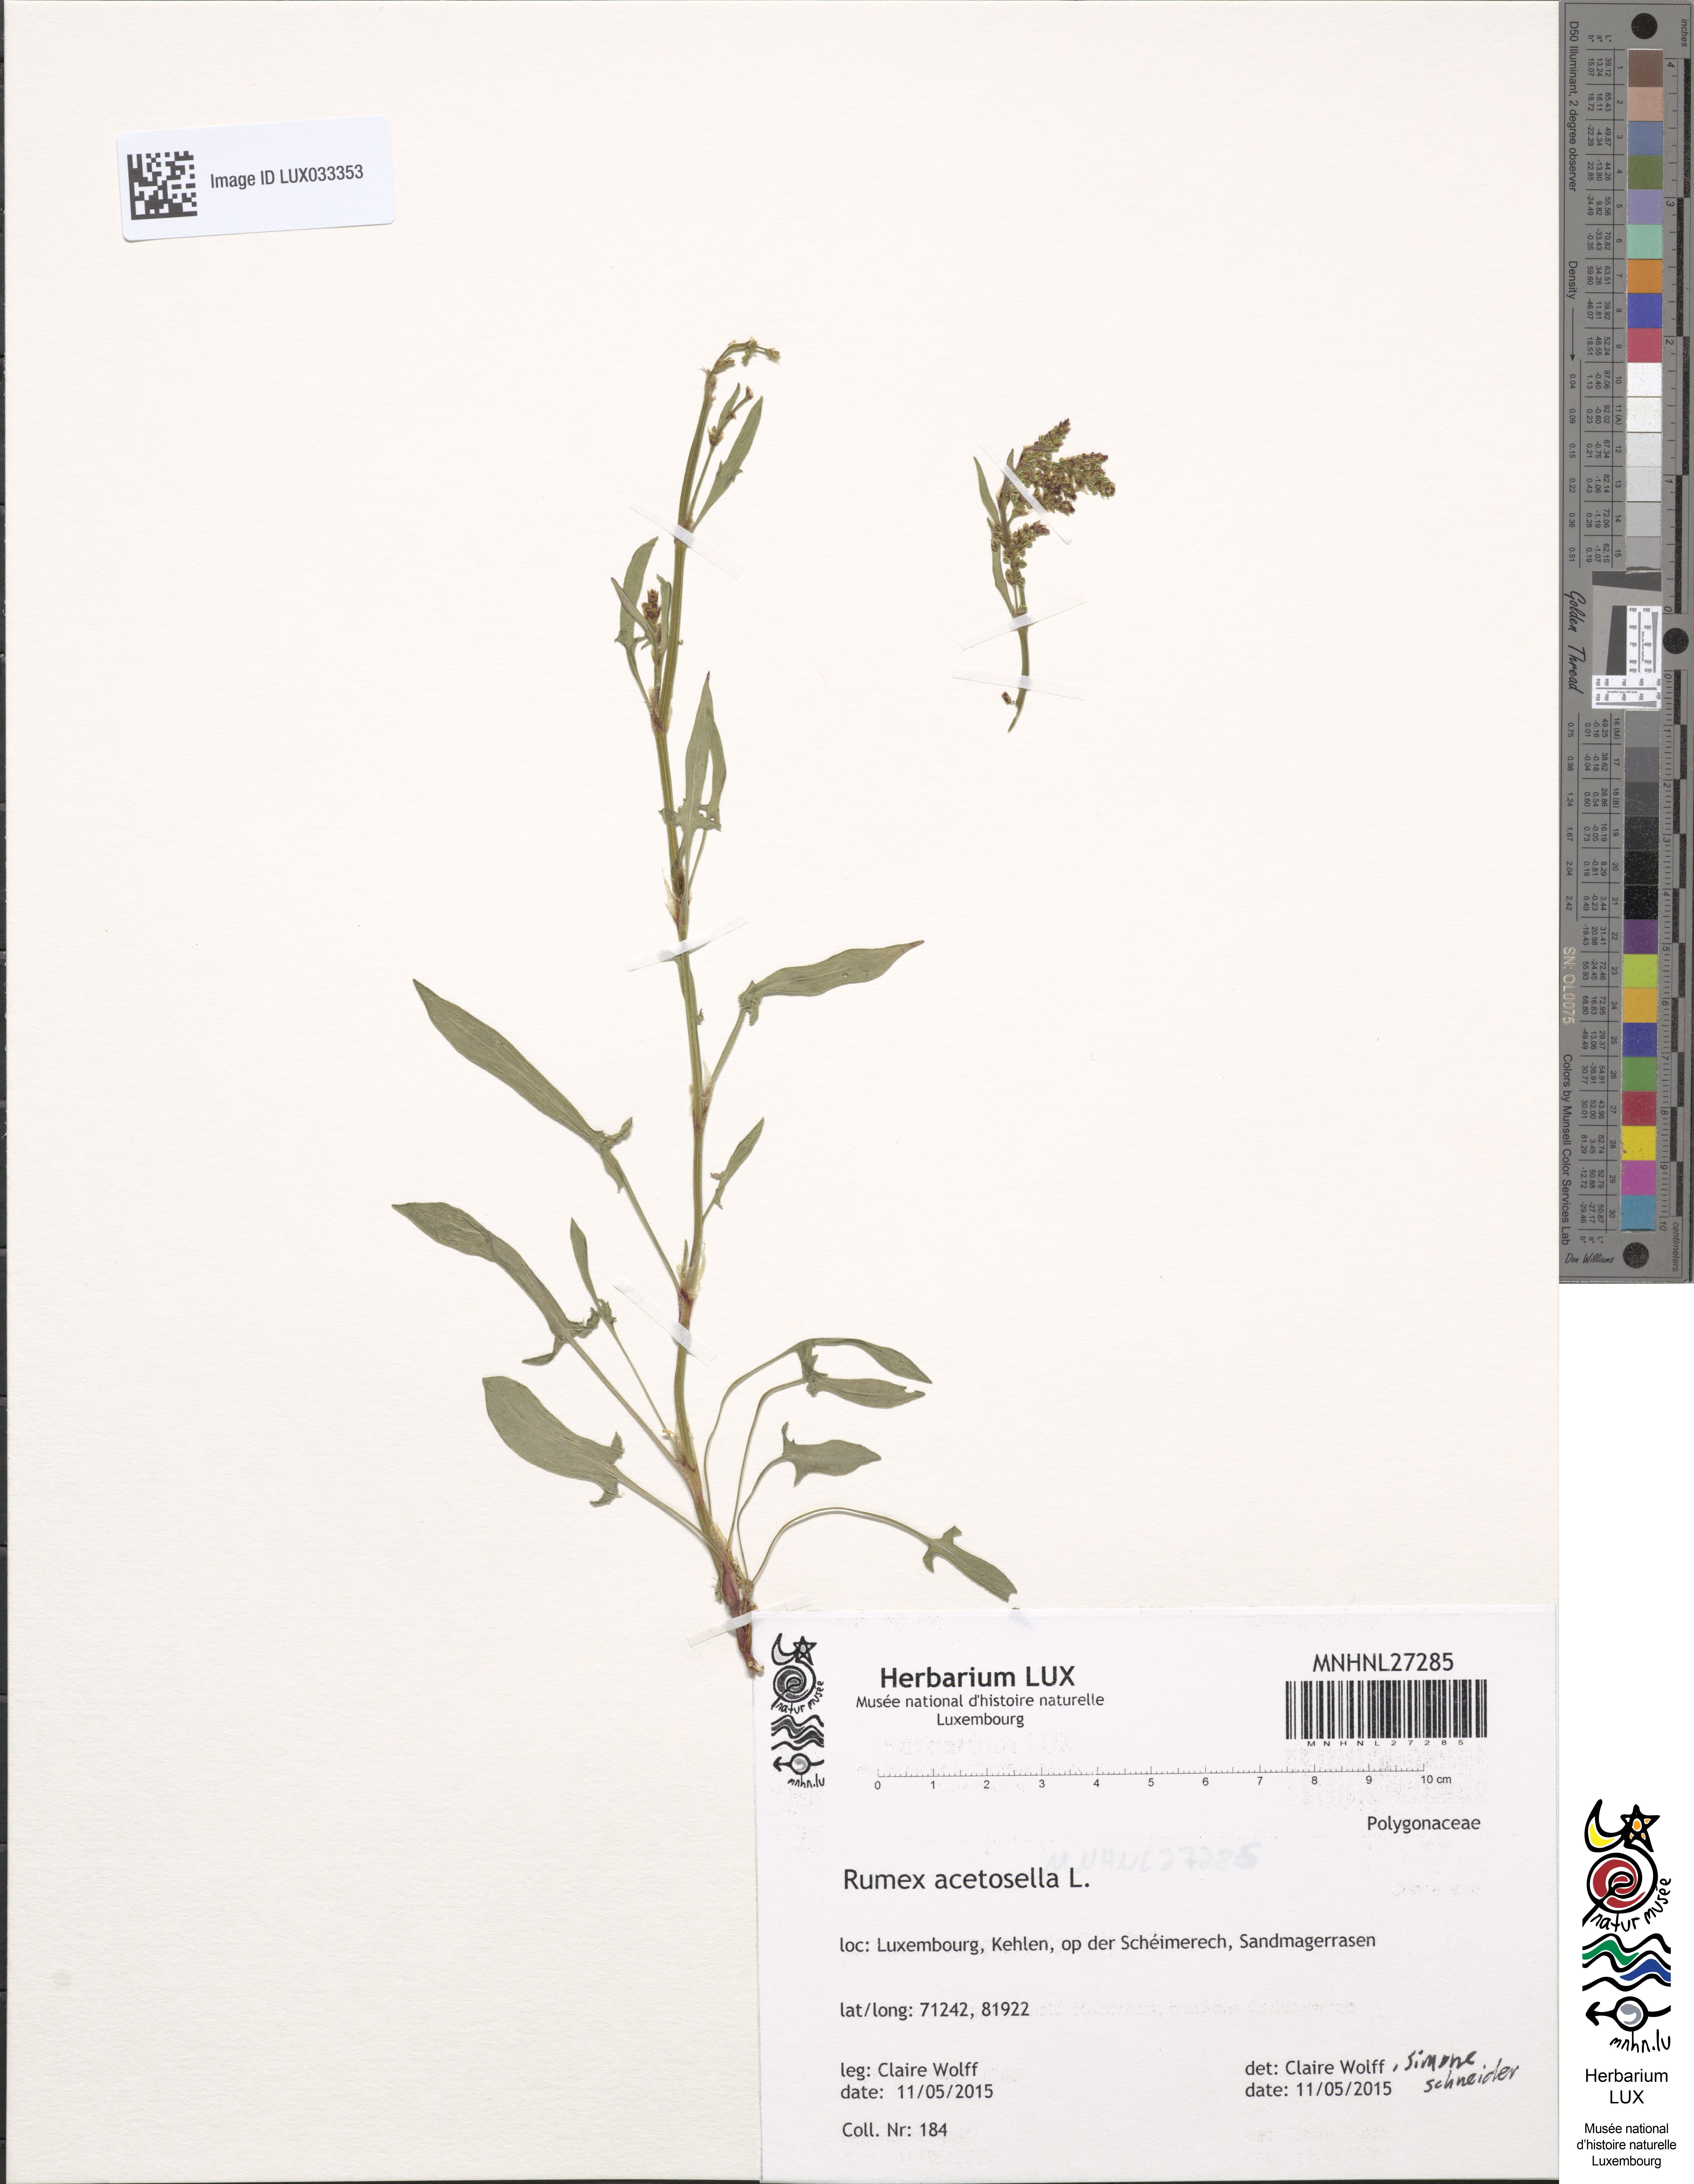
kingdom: Plantae
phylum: Tracheophyta
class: Magnoliopsida
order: Caryophyllales
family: Polygonaceae
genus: Rumex
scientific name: Rumex acetosella
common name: Common sheep sorrel
